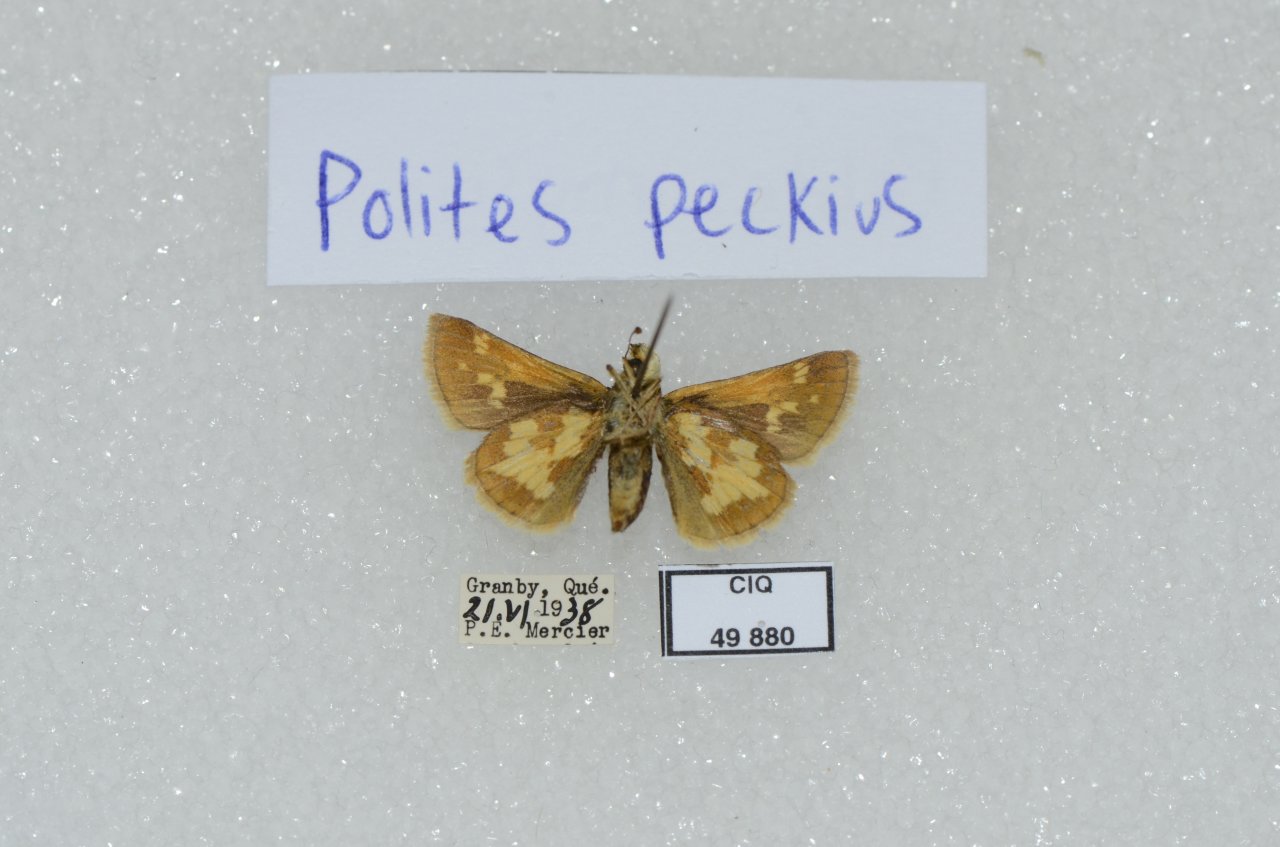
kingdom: Animalia
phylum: Arthropoda
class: Insecta
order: Lepidoptera
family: Hesperiidae
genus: Polites
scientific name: Polites coras
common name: Peck's Skipper
